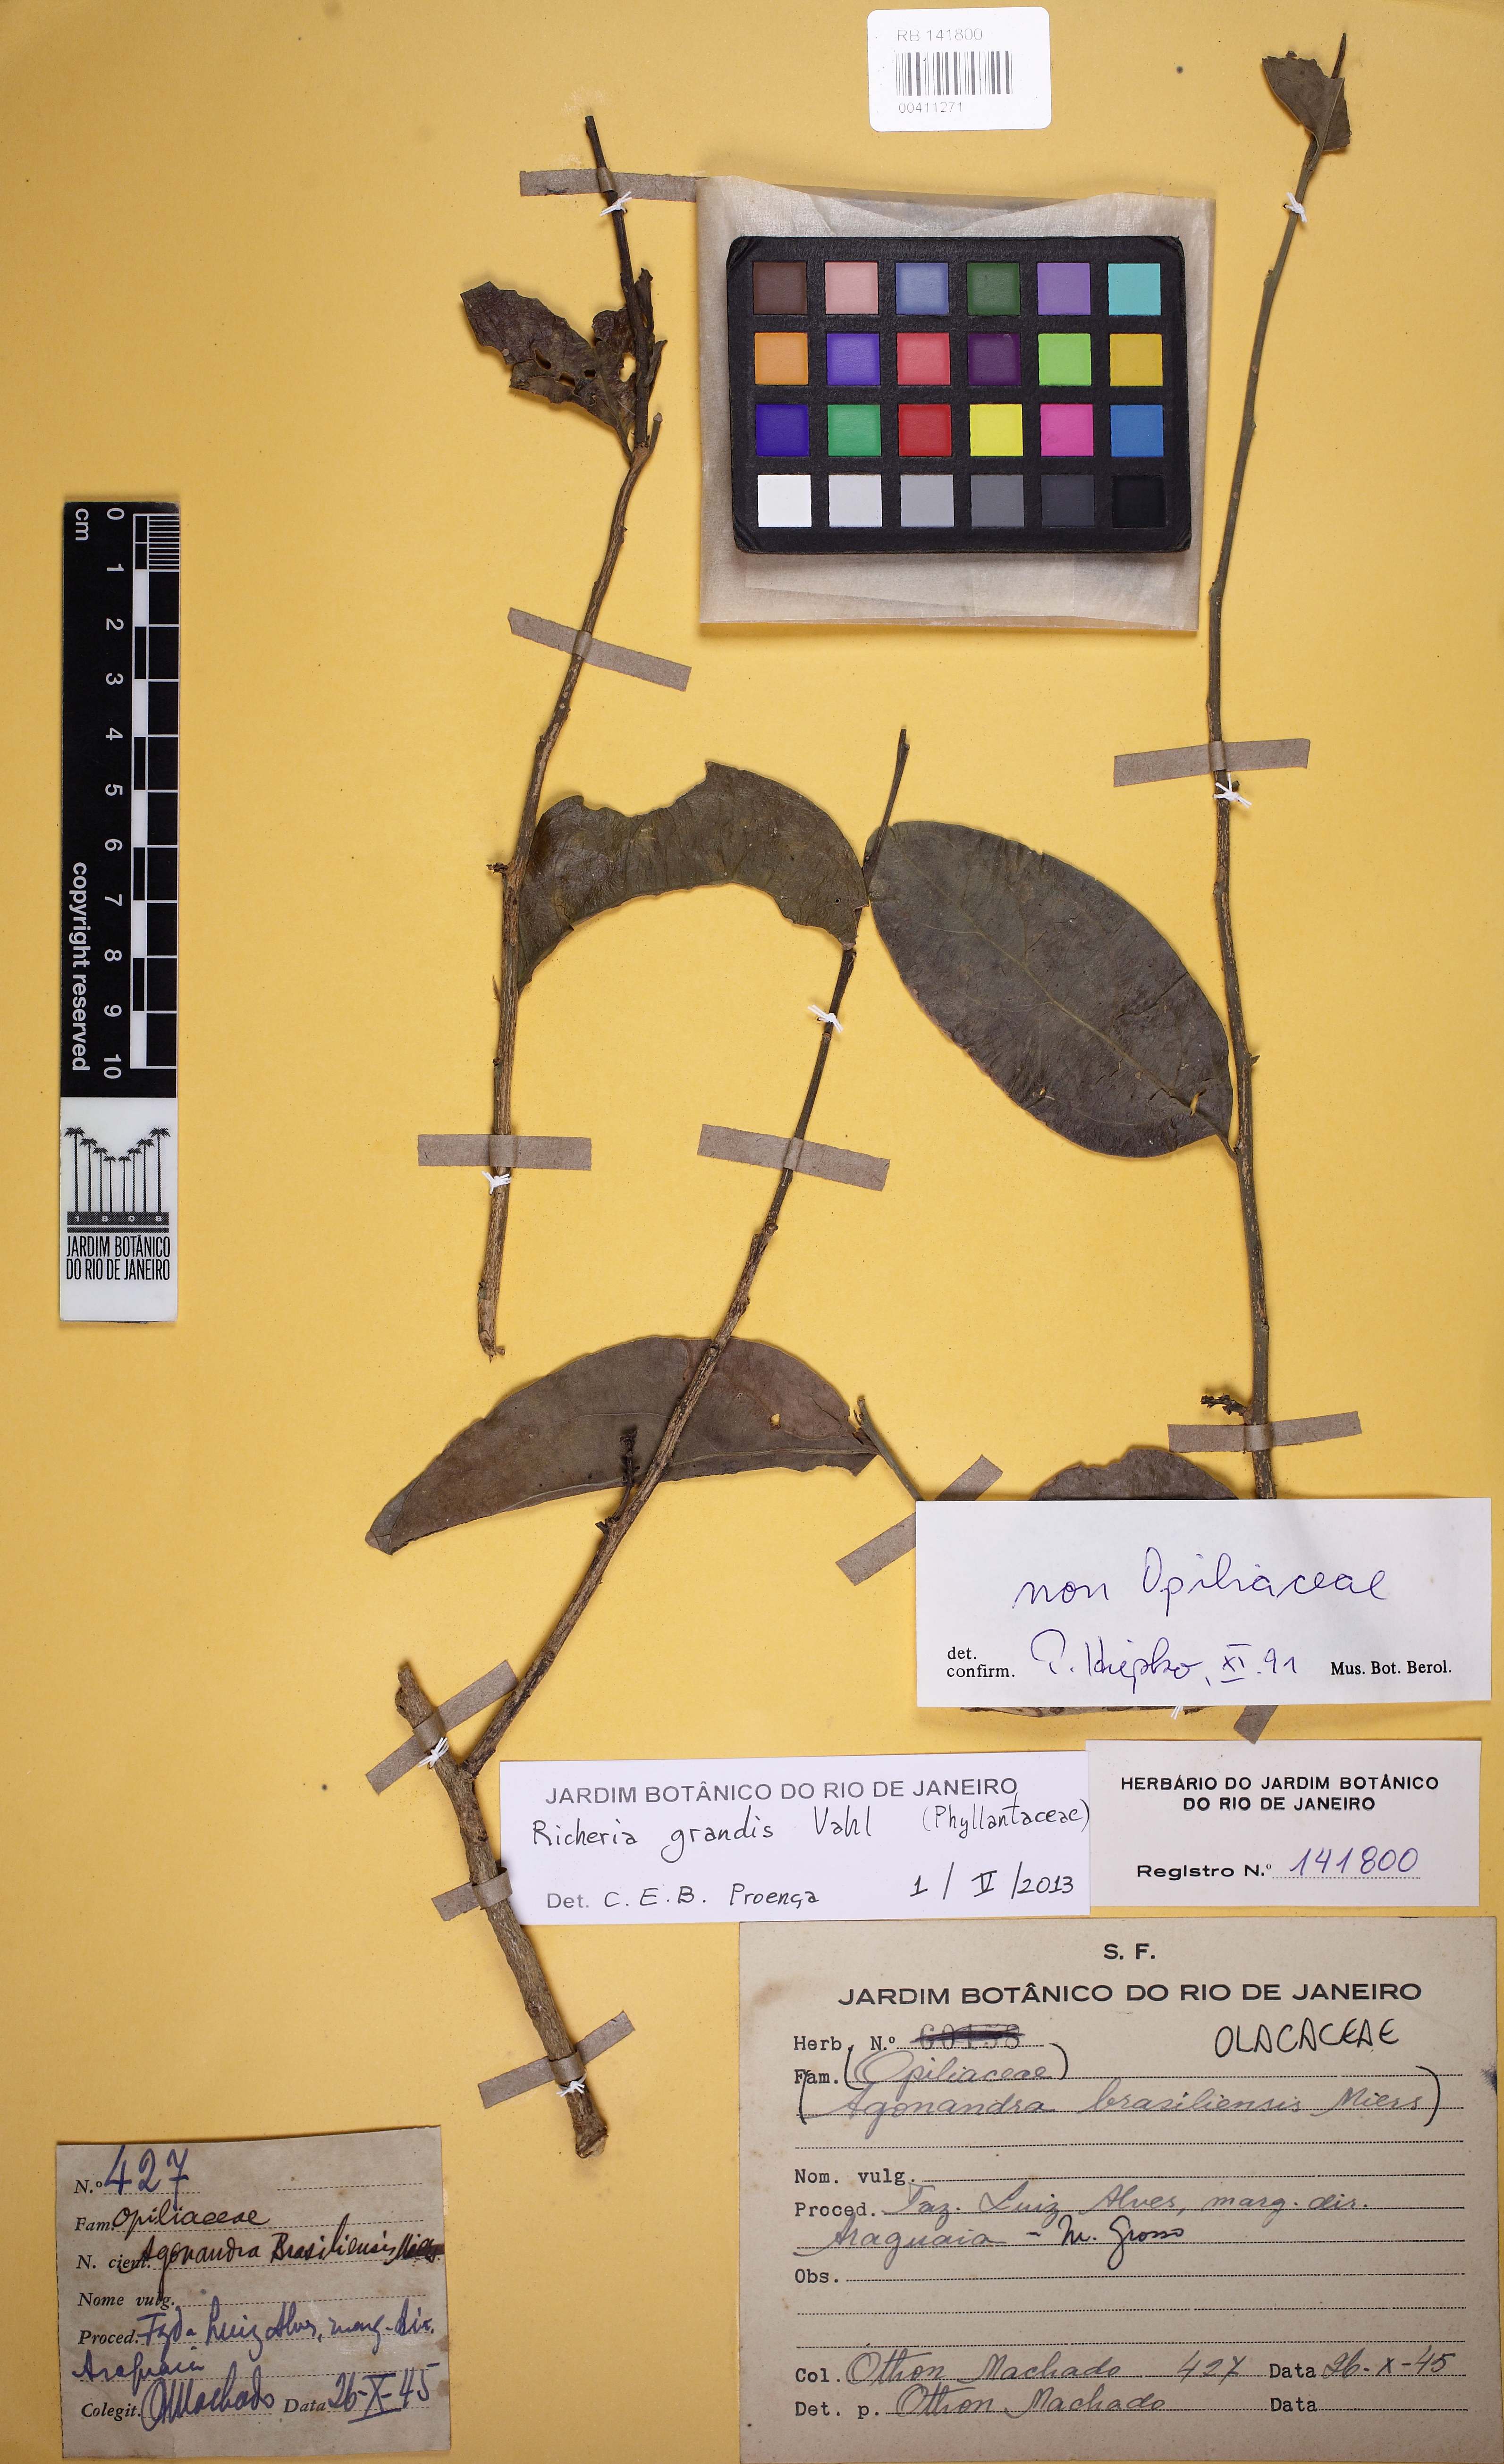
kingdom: Plantae
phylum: Tracheophyta
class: Magnoliopsida
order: Malpighiales
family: Phyllanthaceae
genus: Richeria
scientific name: Richeria grandis
